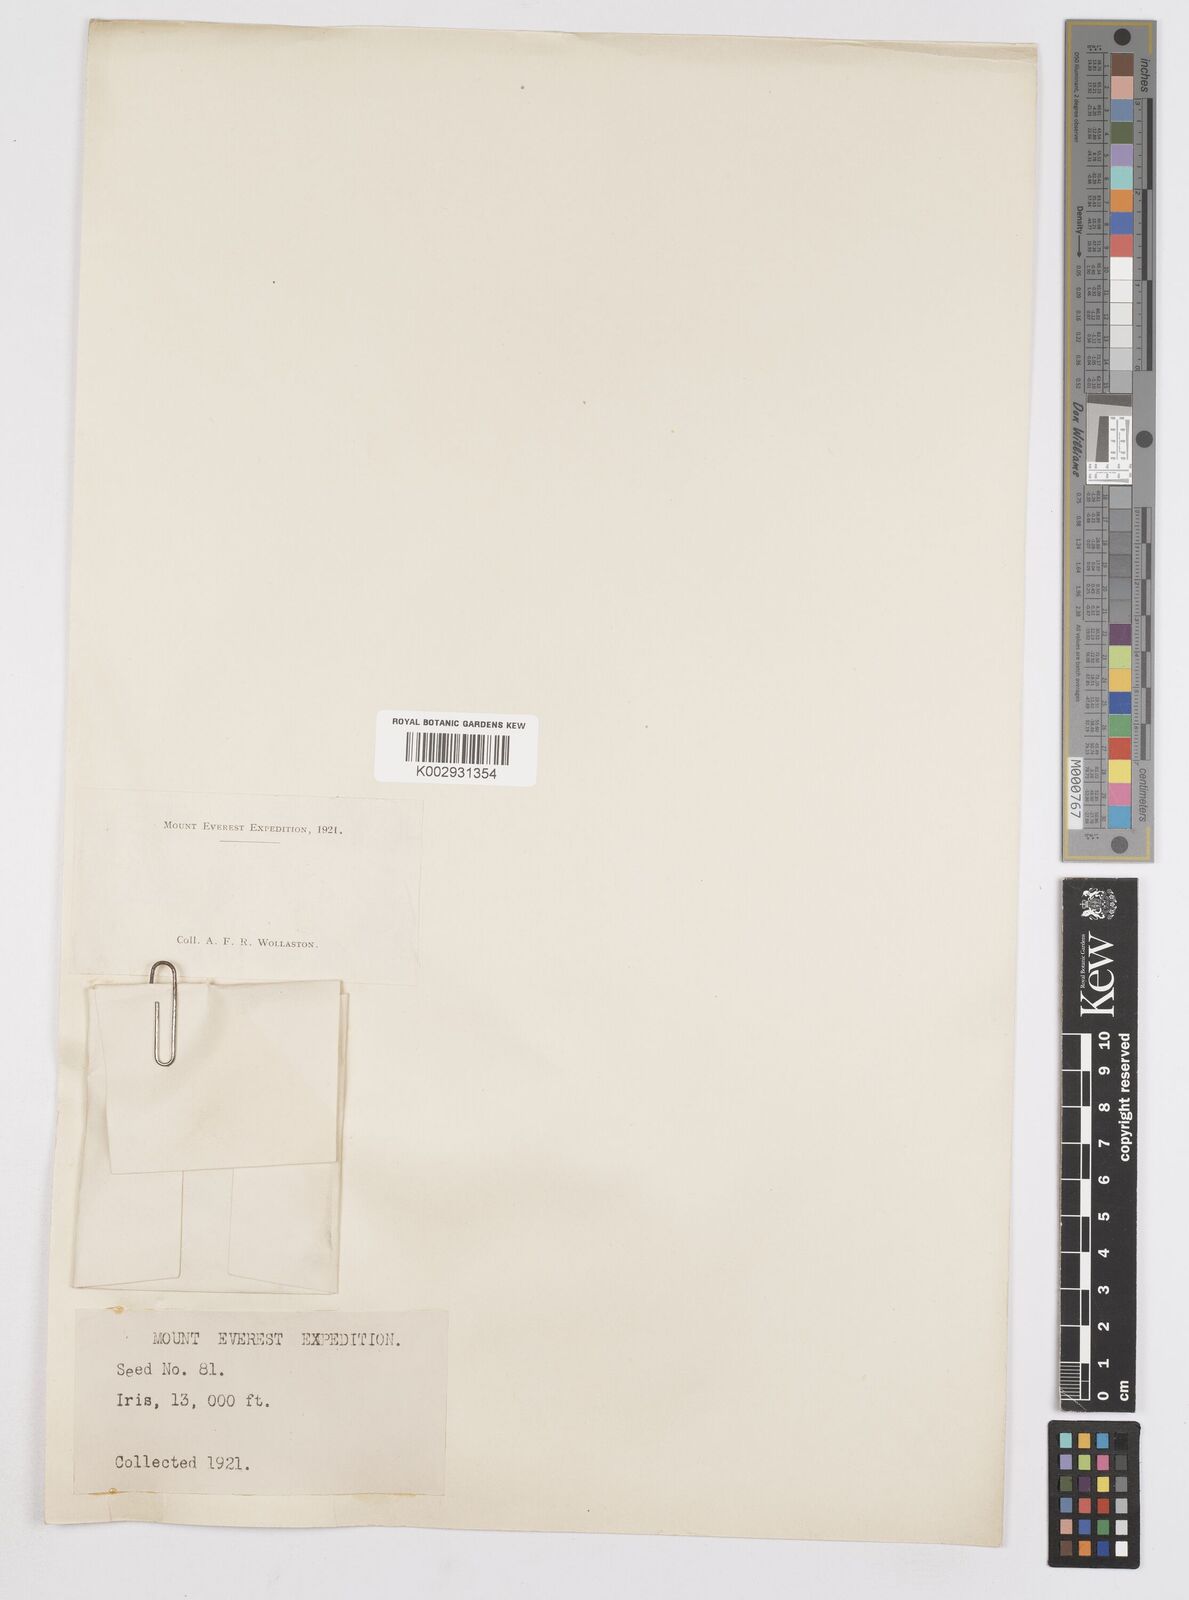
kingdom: Plantae
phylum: Tracheophyta
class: Liliopsida
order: Asparagales
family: Iridaceae
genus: Iris
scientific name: Iris
